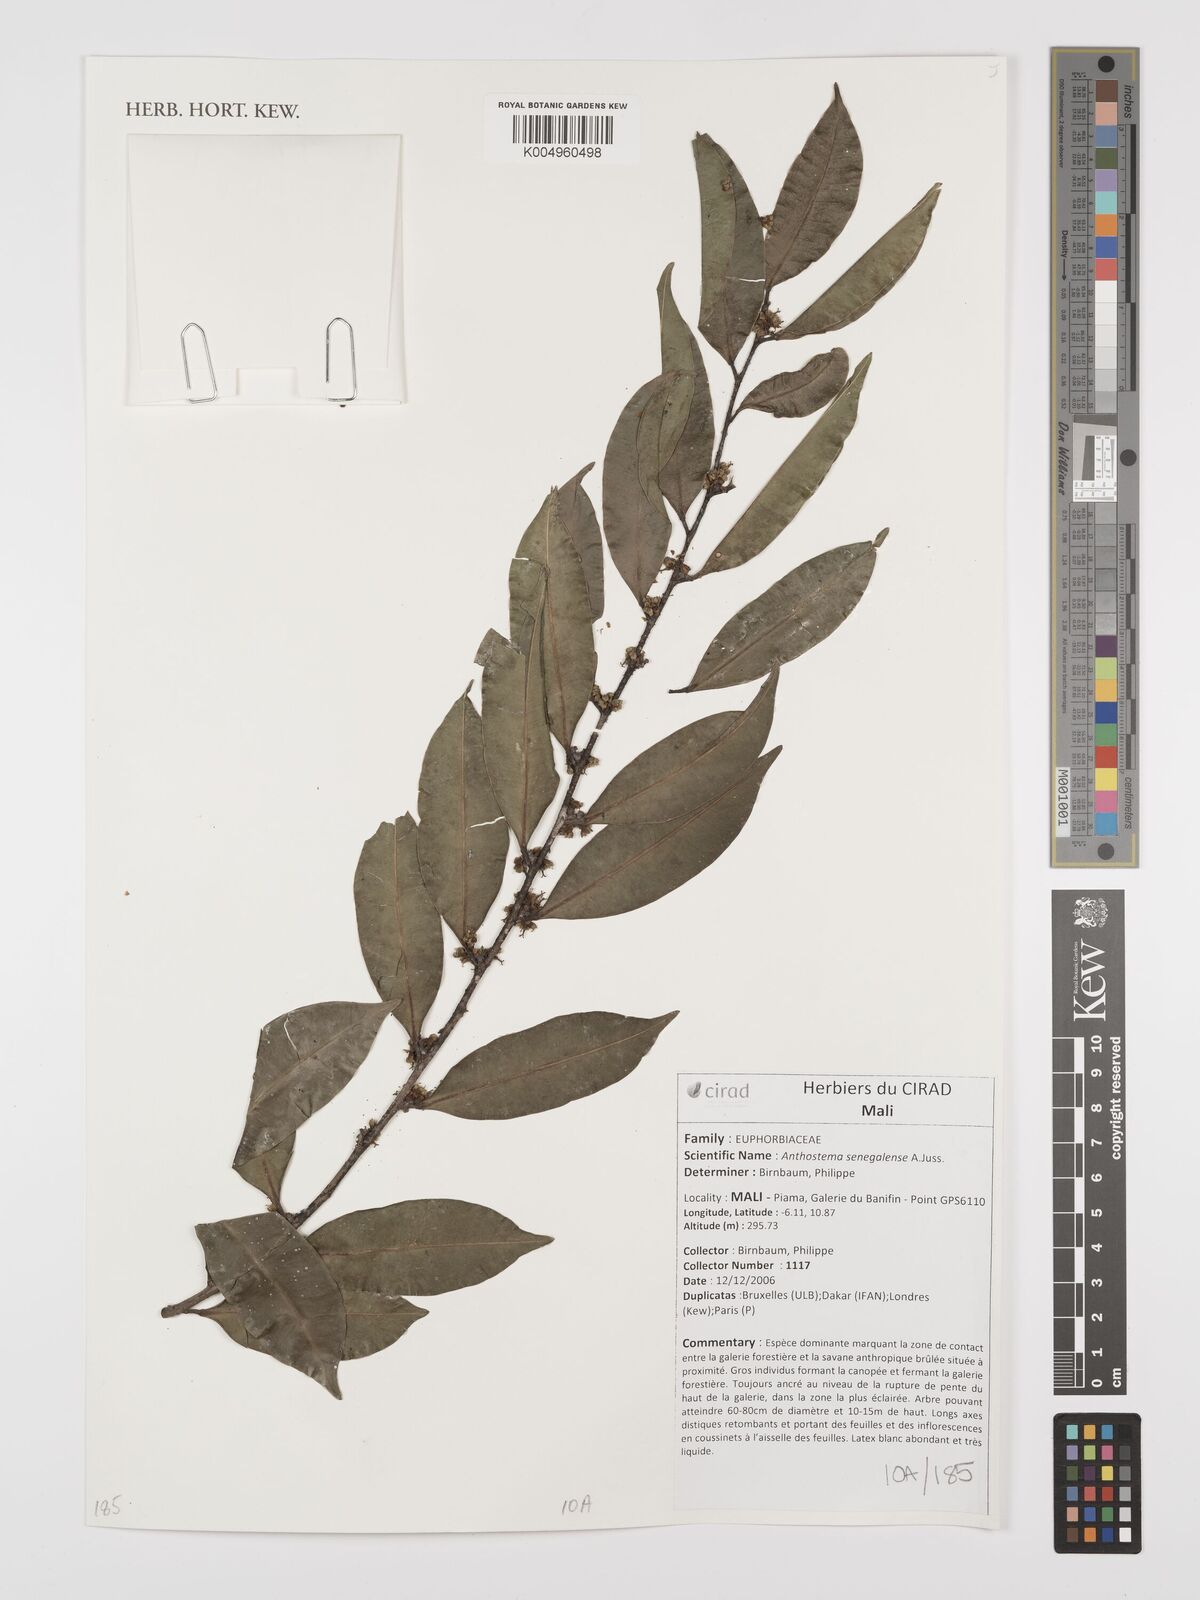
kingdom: Plantae
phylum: Tracheophyta
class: Magnoliopsida
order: Malpighiales
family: Euphorbiaceae
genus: Anthostema
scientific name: Anthostema senegalense
